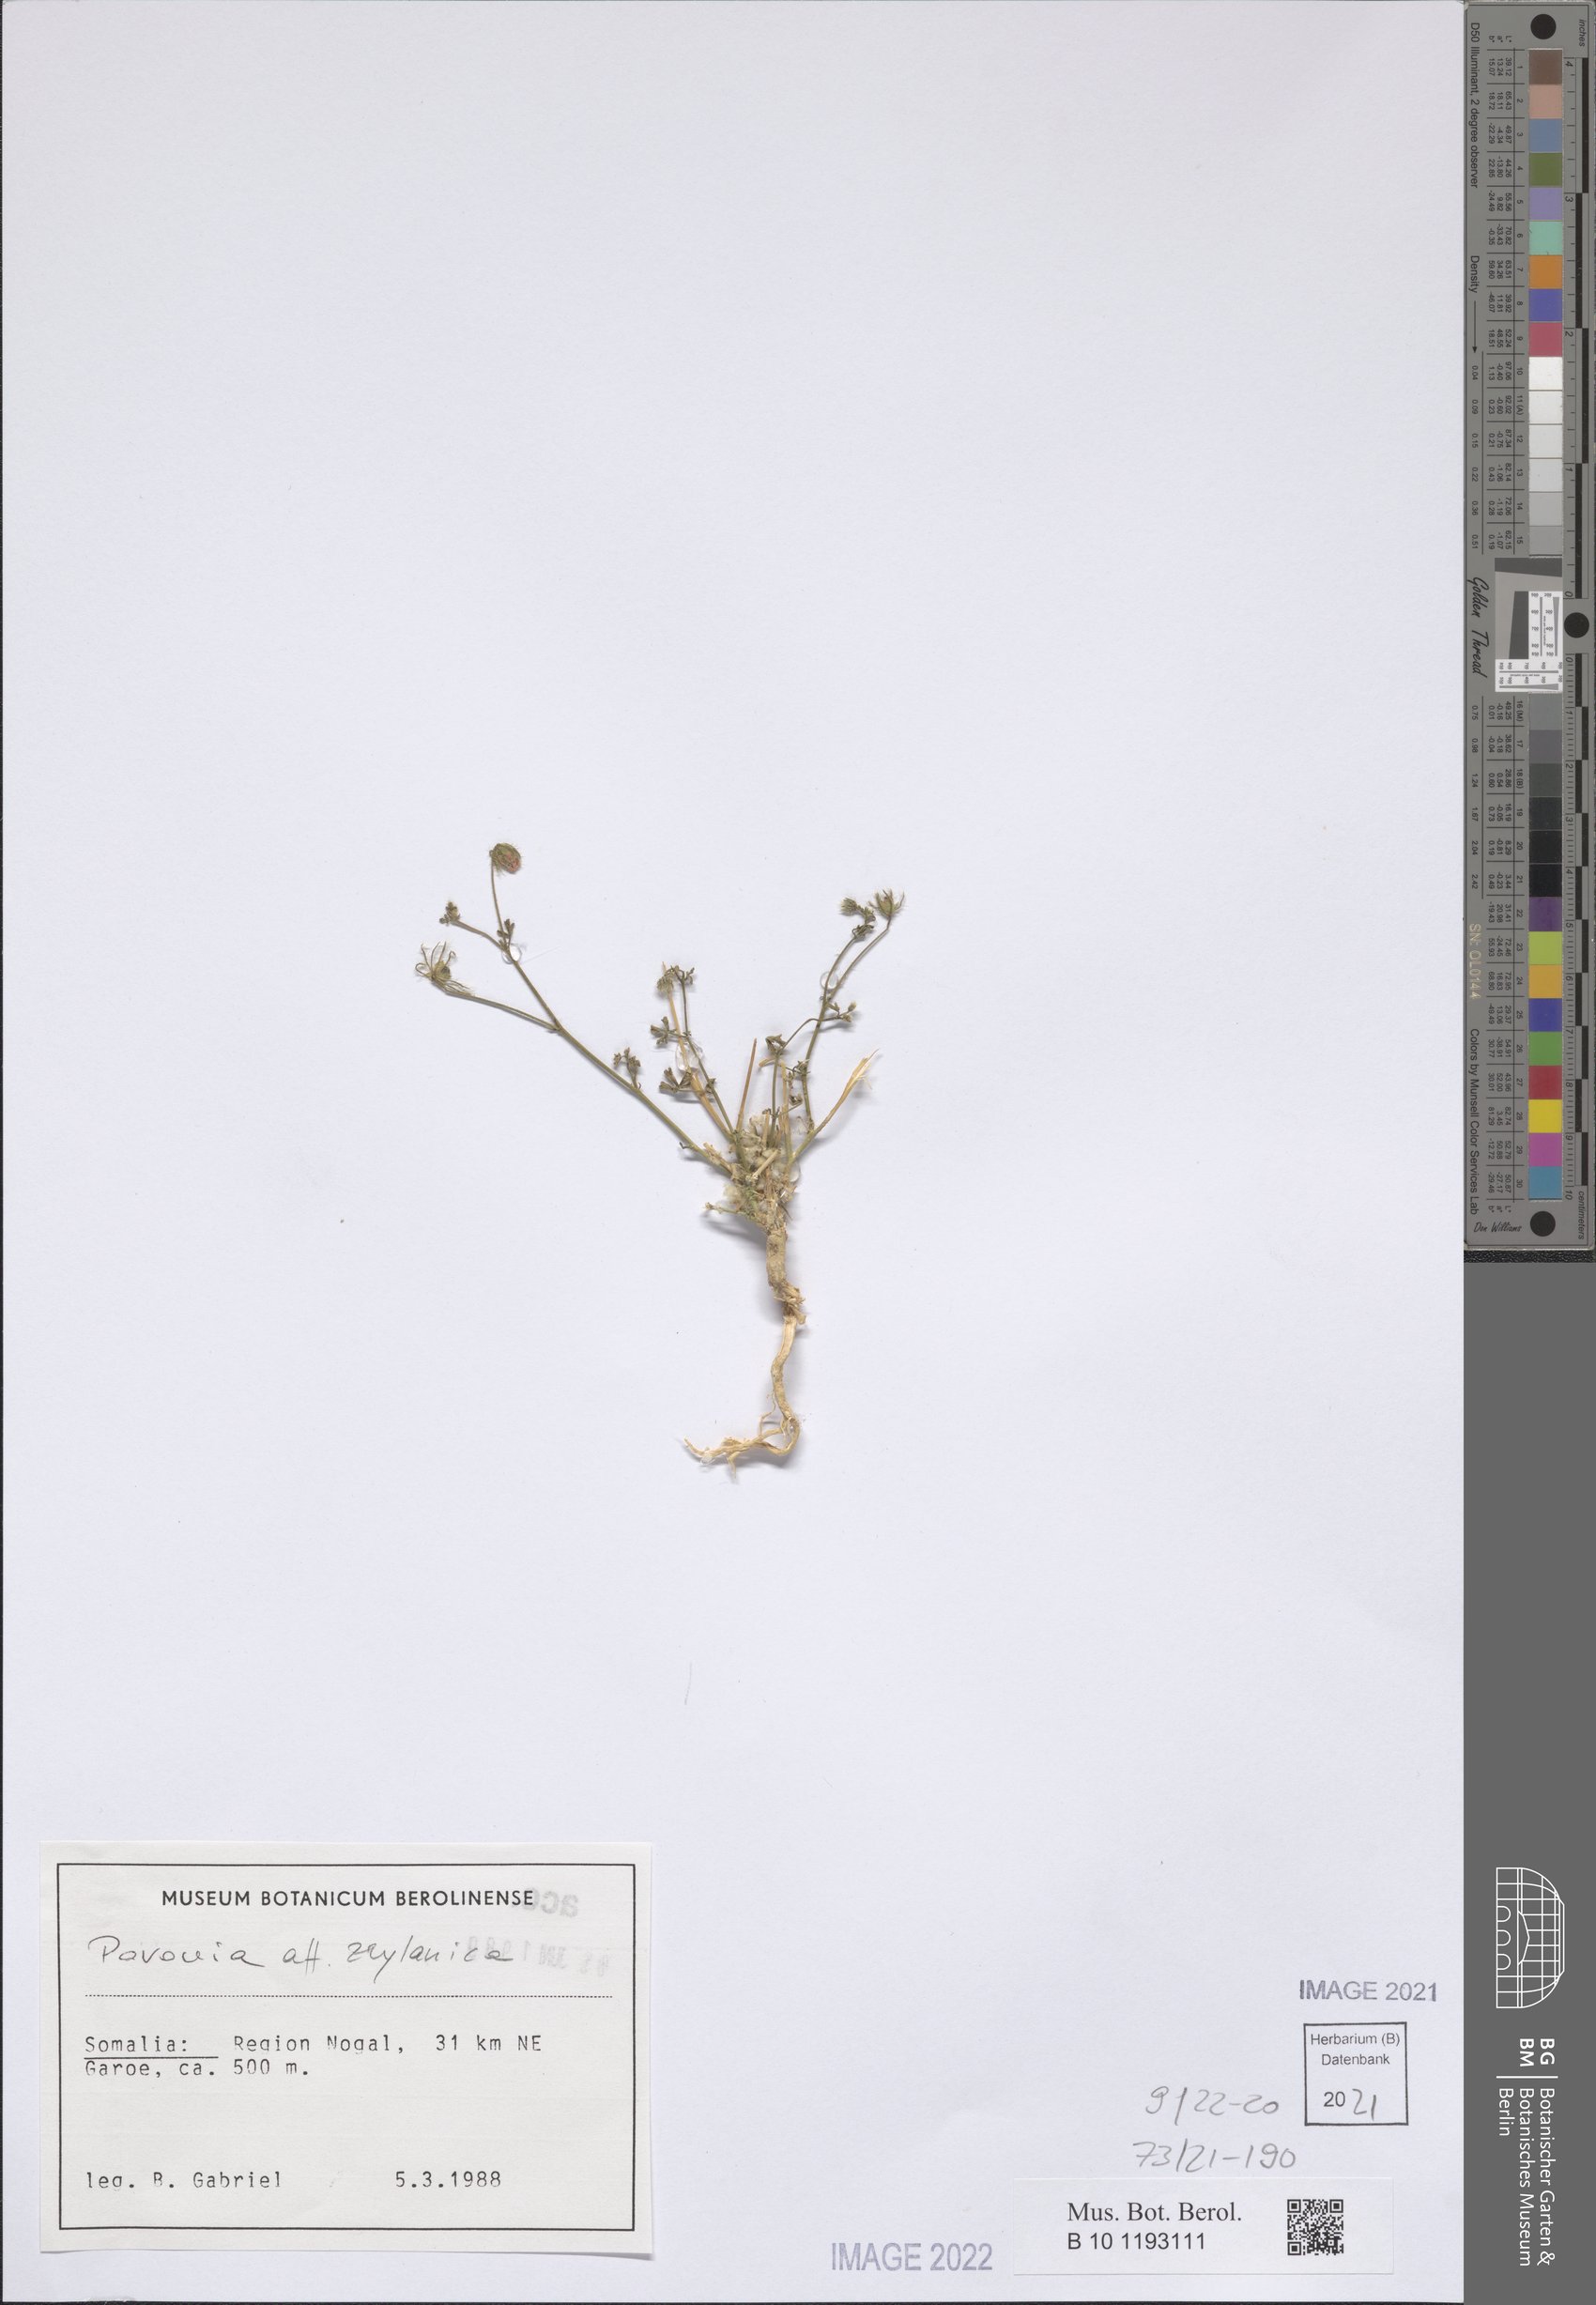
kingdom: Plantae
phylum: Tracheophyta
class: Magnoliopsida
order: Malvales
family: Malvaceae
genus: Pavonia
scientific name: Pavonia zeylanica
